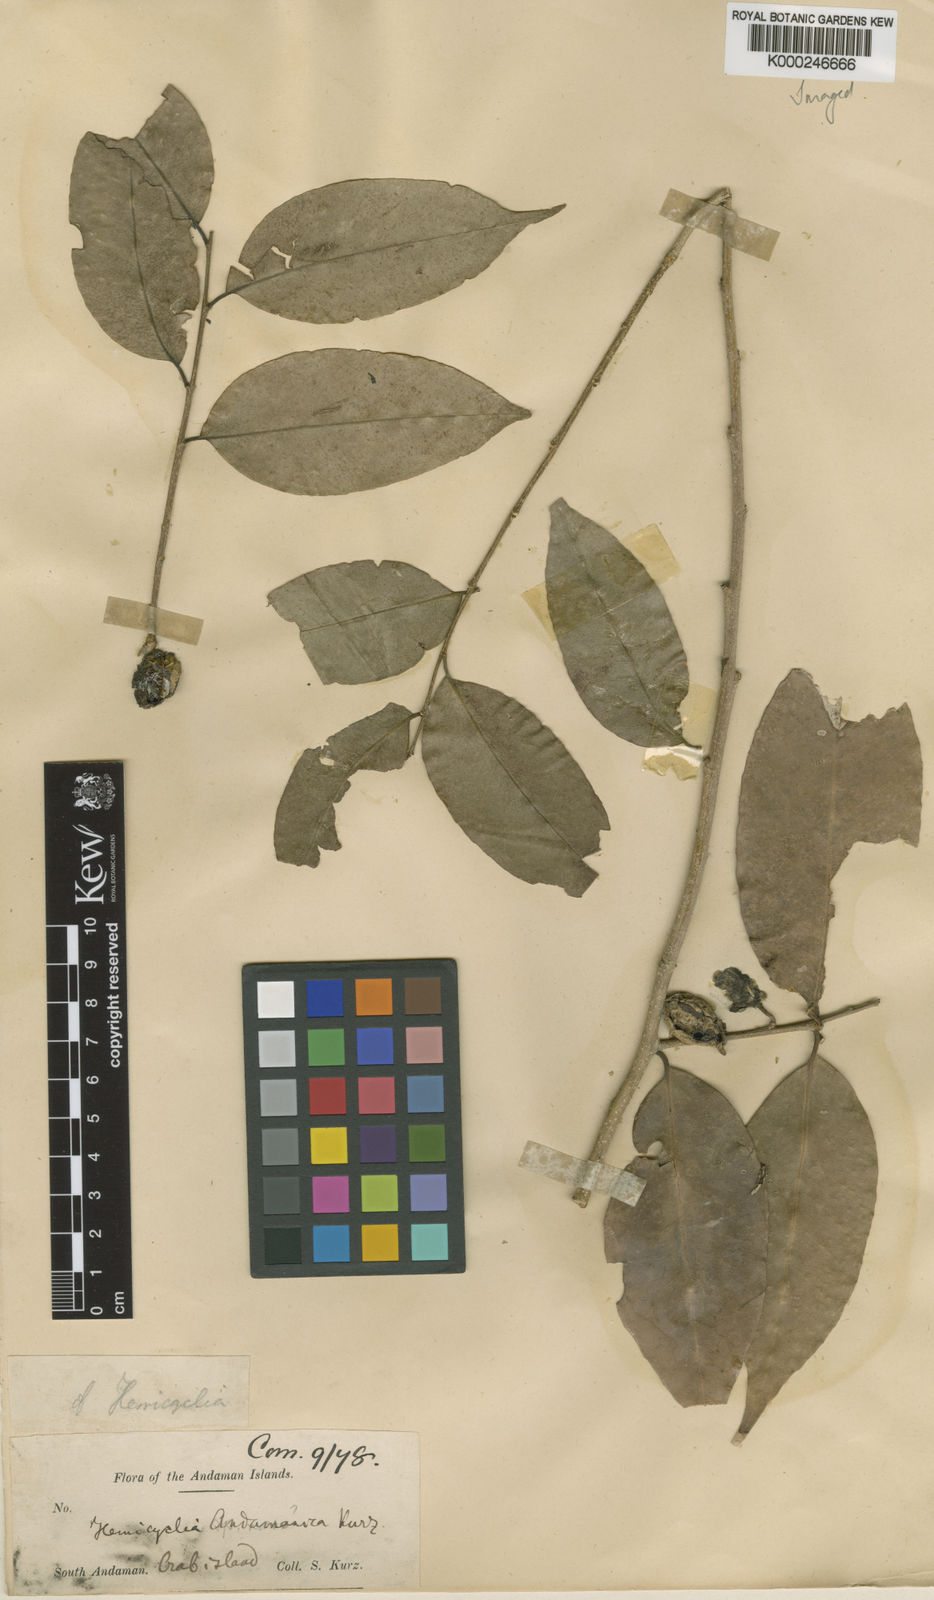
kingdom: Plantae
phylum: Tracheophyta
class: Magnoliopsida
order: Malpighiales
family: Putranjivaceae
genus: Drypetes
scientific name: Drypetes andamanica
